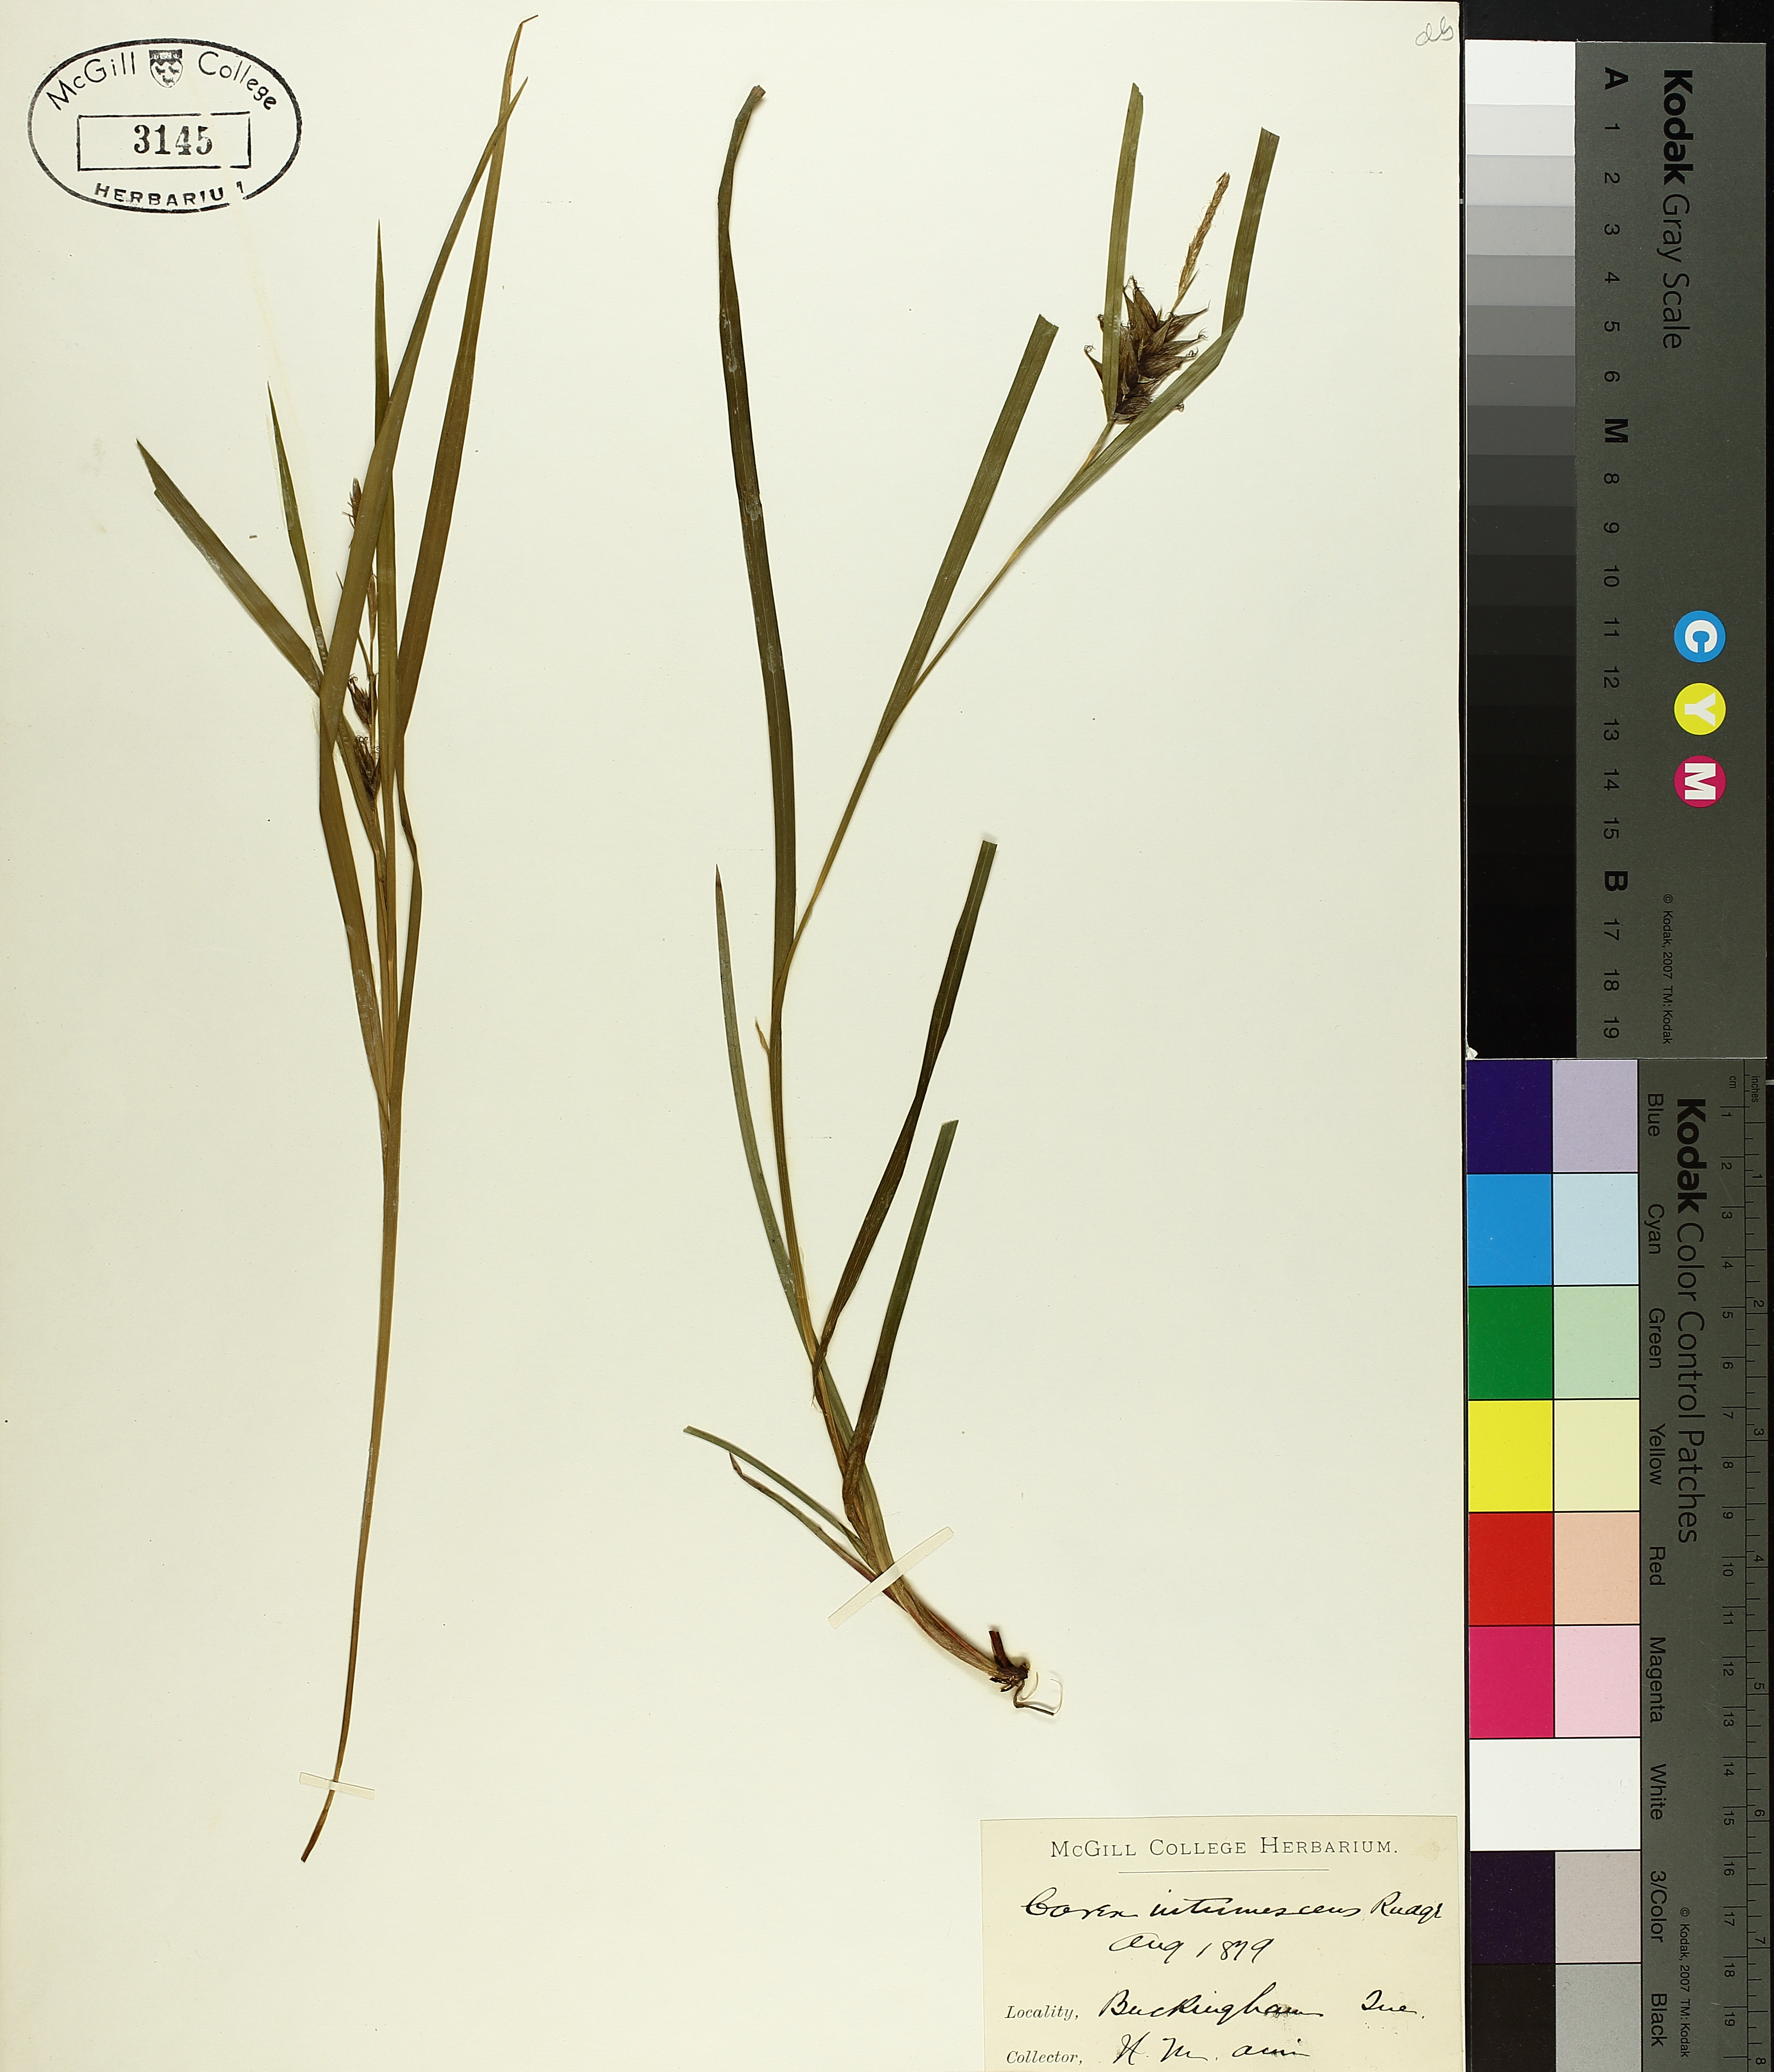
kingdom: Plantae
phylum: Tracheophyta
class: Liliopsida
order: Poales
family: Cyperaceae
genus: Carex
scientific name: Carex intumescens
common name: Greater bladder sedge
